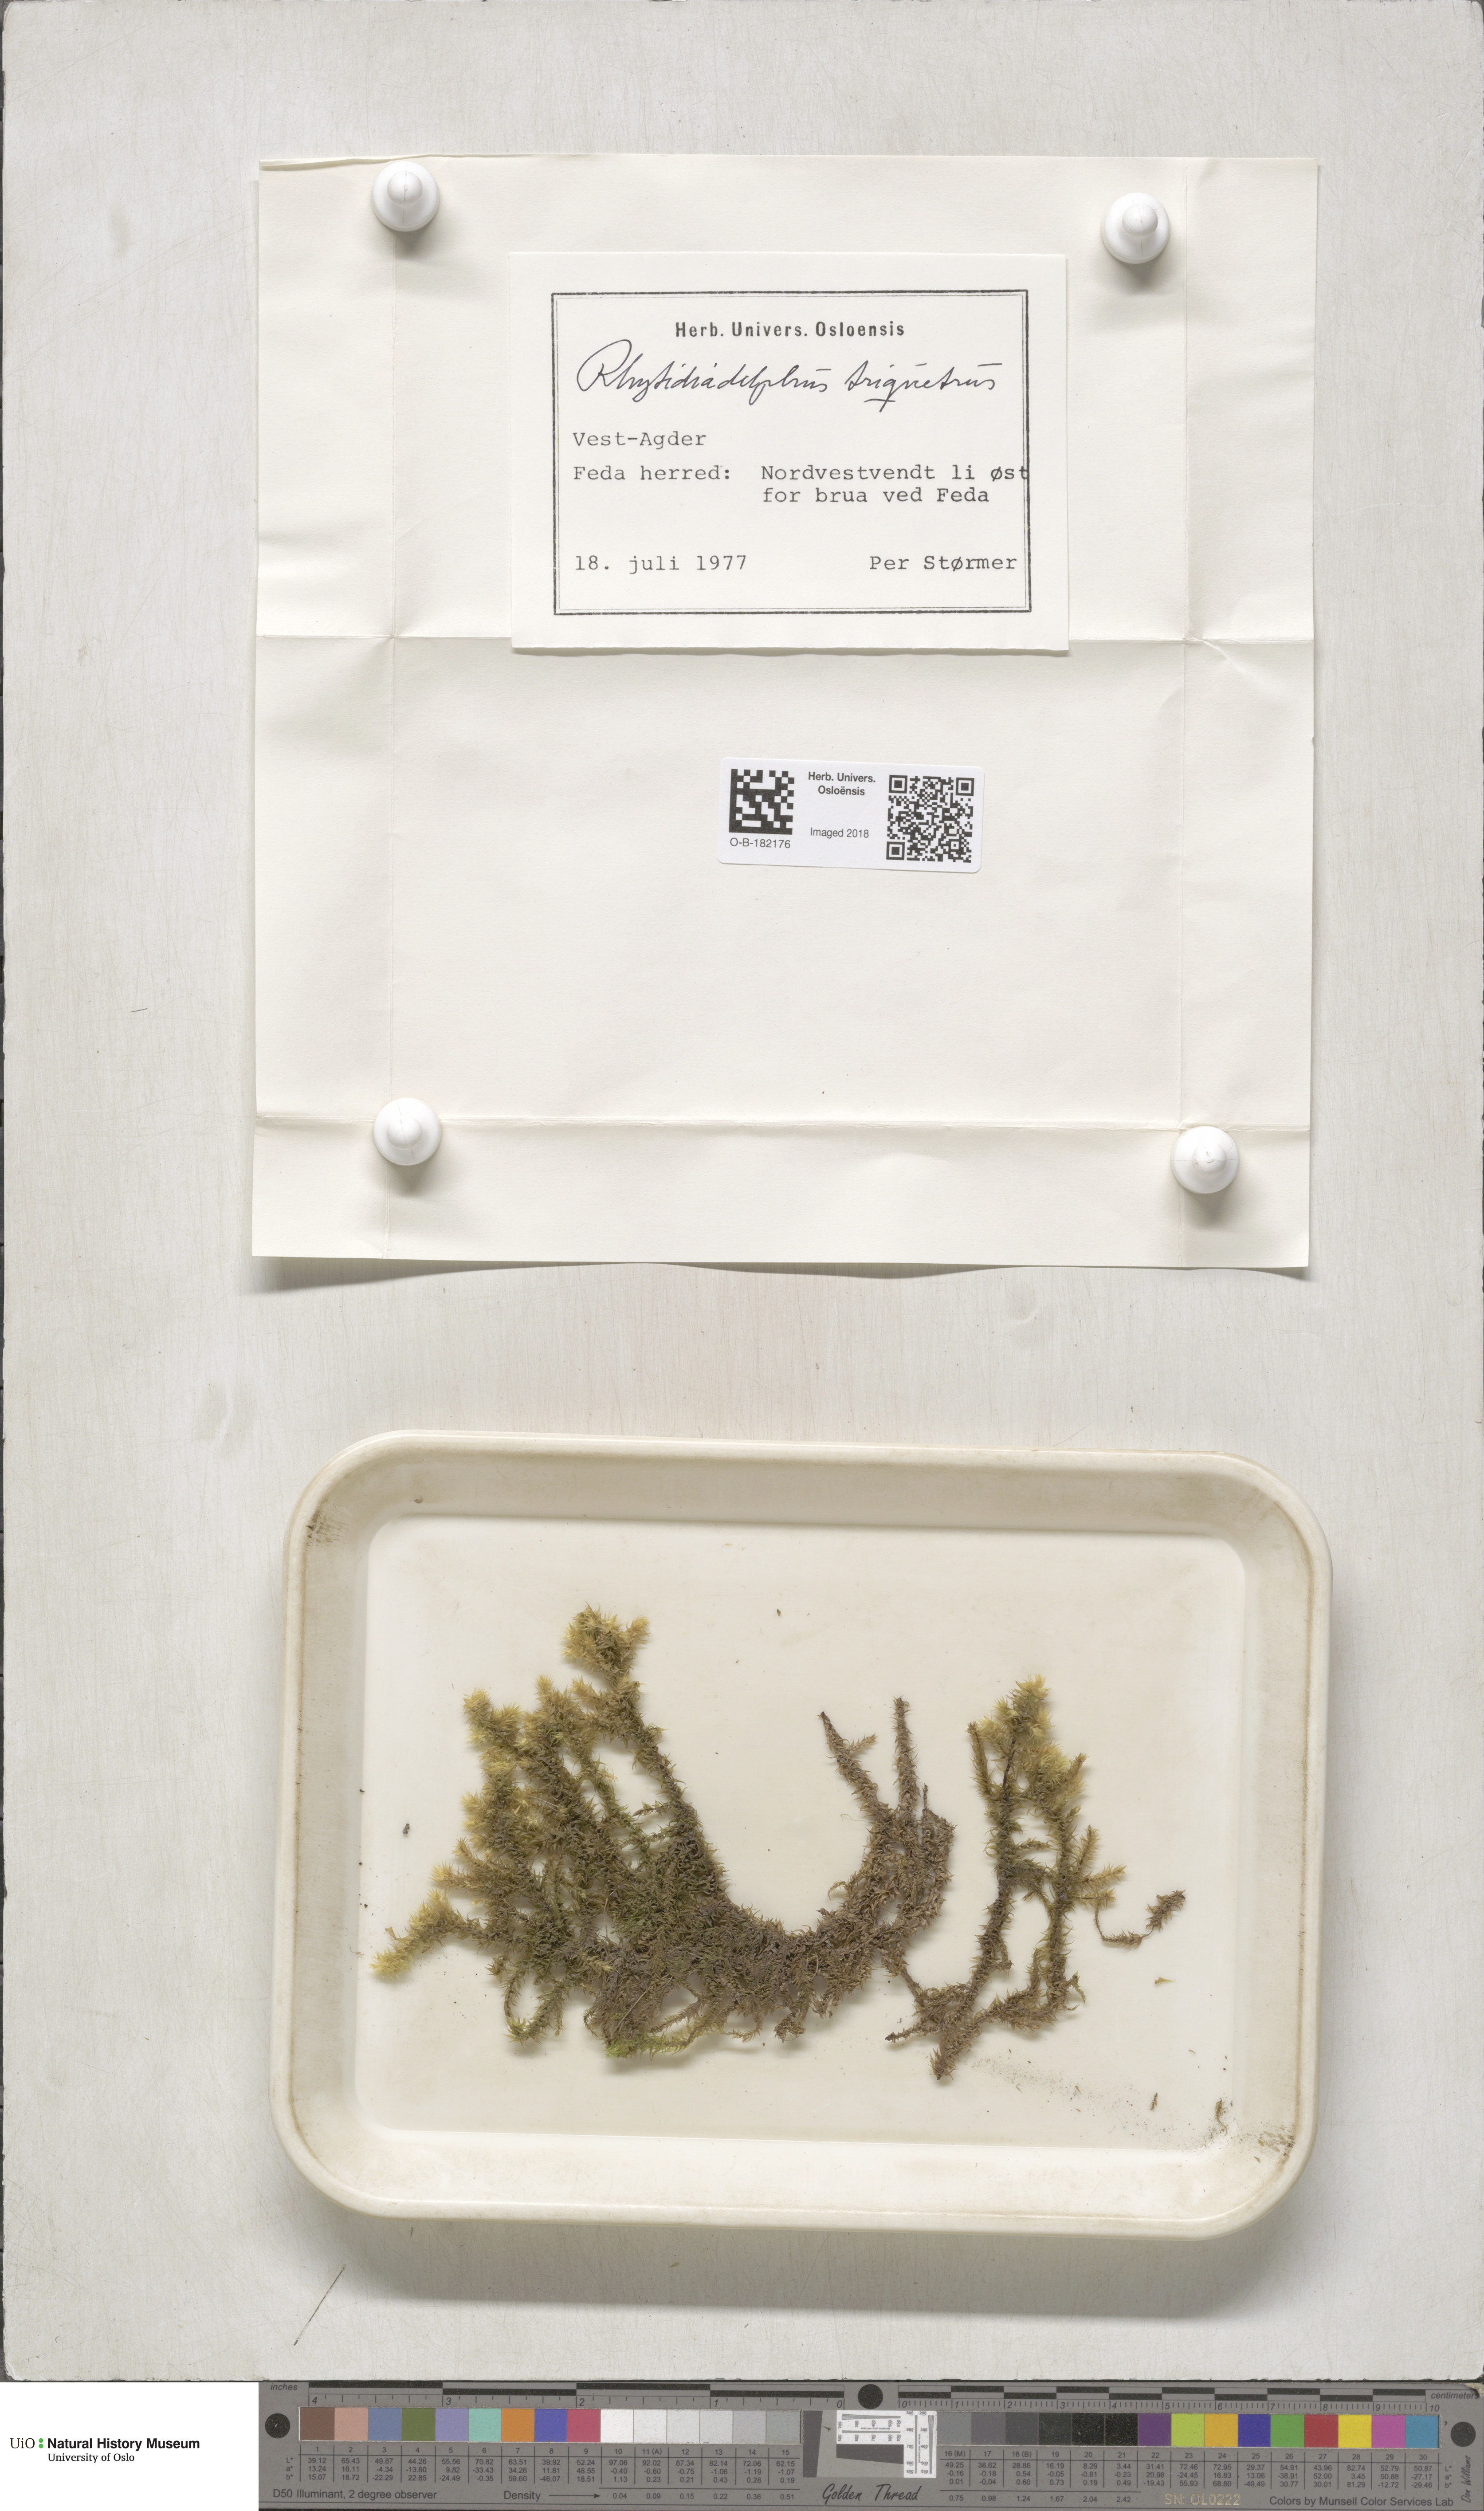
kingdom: Plantae
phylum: Bryophyta
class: Bryopsida
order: Hypnales
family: Hylocomiaceae
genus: Hylocomiadelphus
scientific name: Hylocomiadelphus triquetrus
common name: Rough goose neck moss
